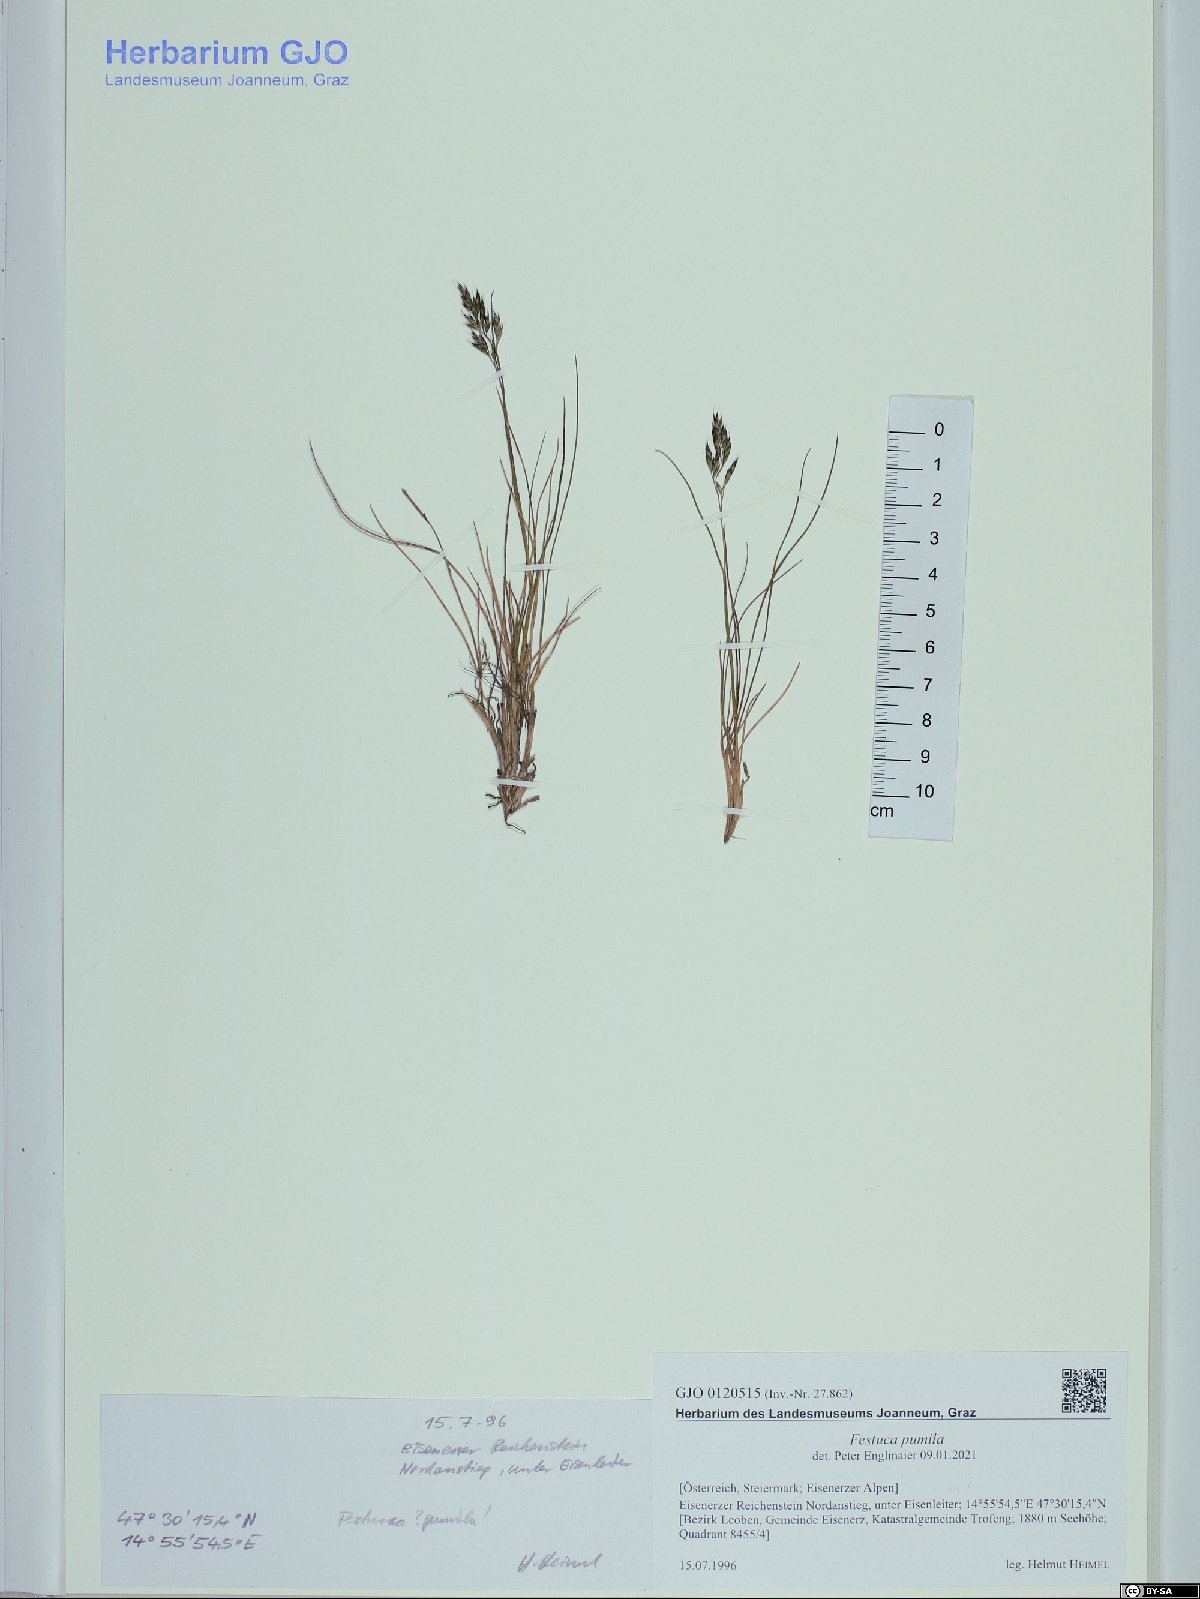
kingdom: Plantae
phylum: Tracheophyta
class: Liliopsida
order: Poales
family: Poaceae
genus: Festuca
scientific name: Festuca quadriflora
